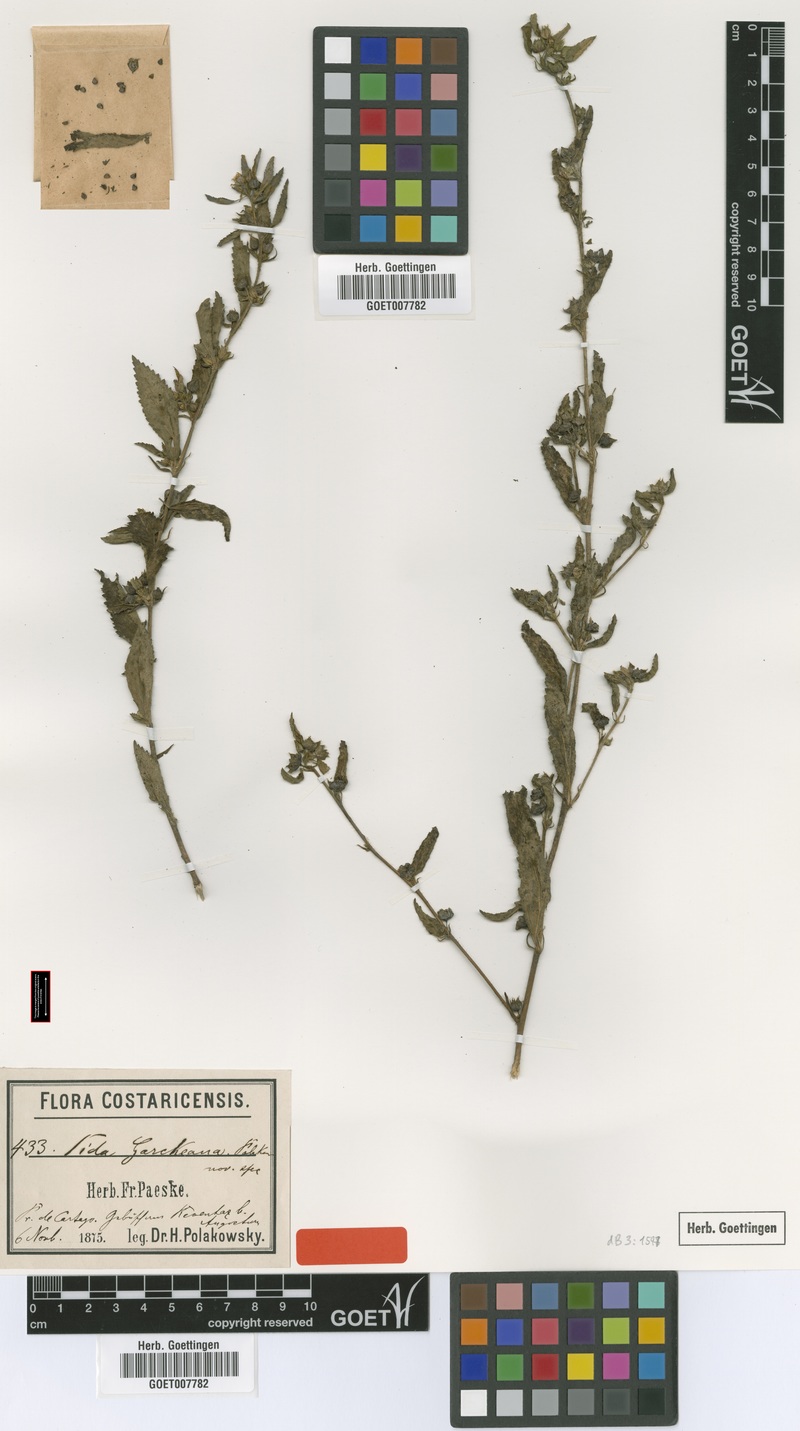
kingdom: Plantae
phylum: Tracheophyta
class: Magnoliopsida
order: Malvales
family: Malvaceae
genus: Sida
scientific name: Sida acuta
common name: Common wireweed
